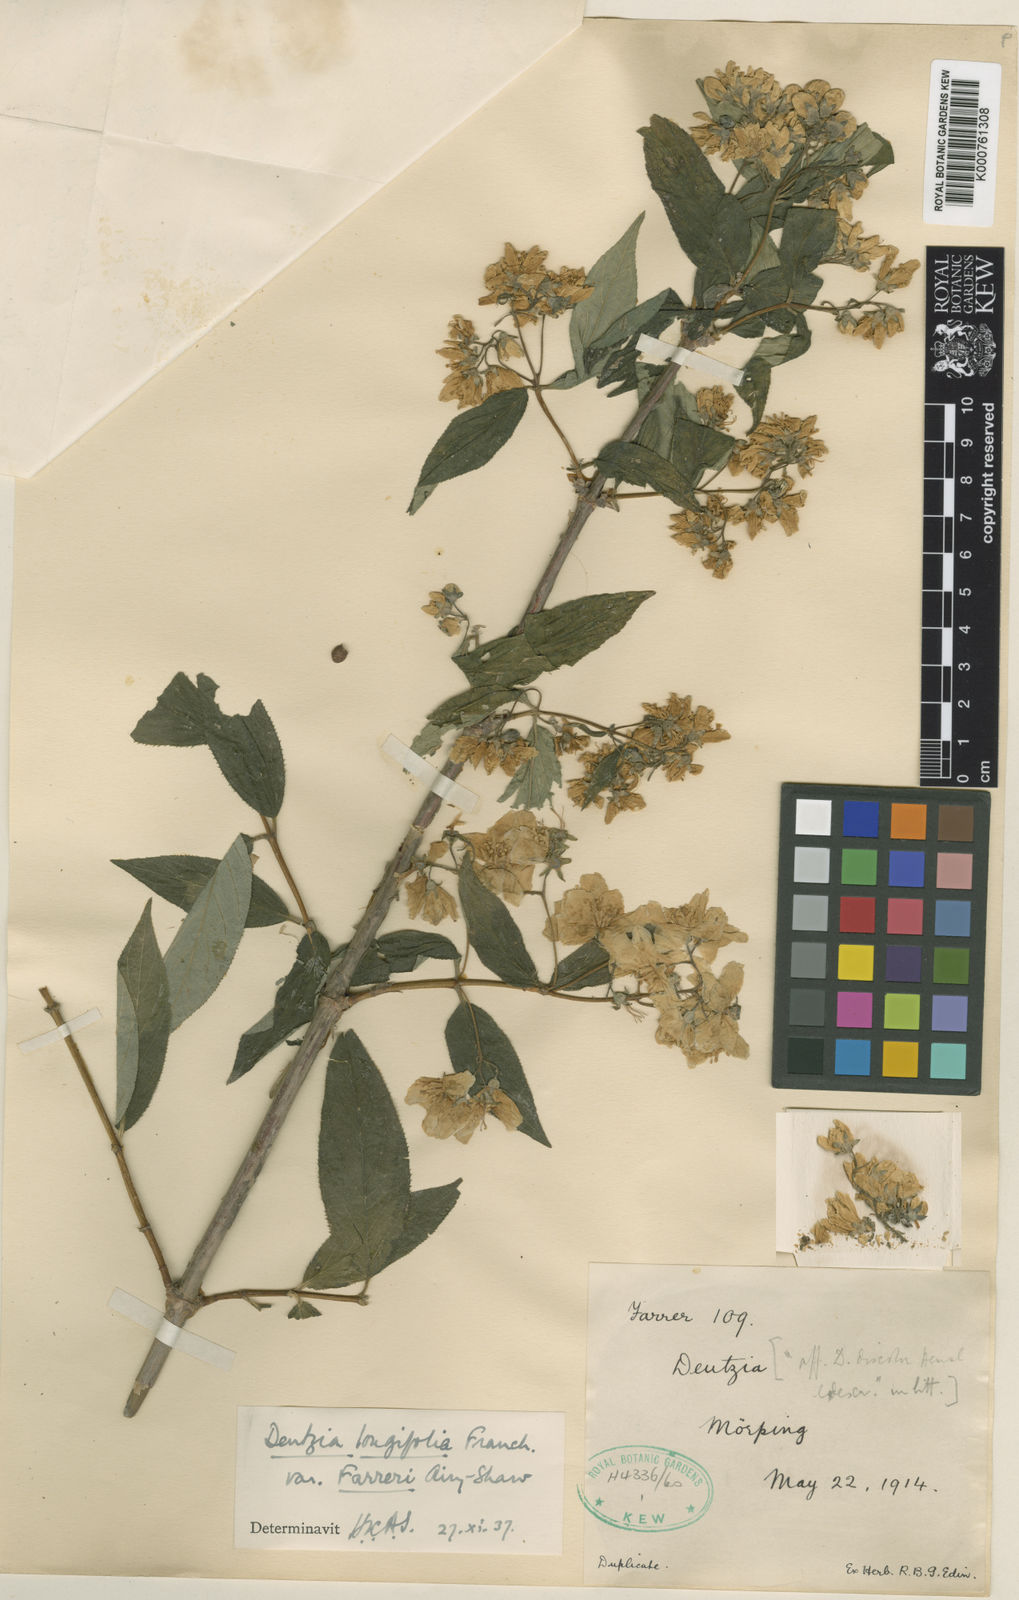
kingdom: Plantae
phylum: Tracheophyta
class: Magnoliopsida
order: Cornales
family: Hydrangeaceae
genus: Deutzia
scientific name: Deutzia longifolia
